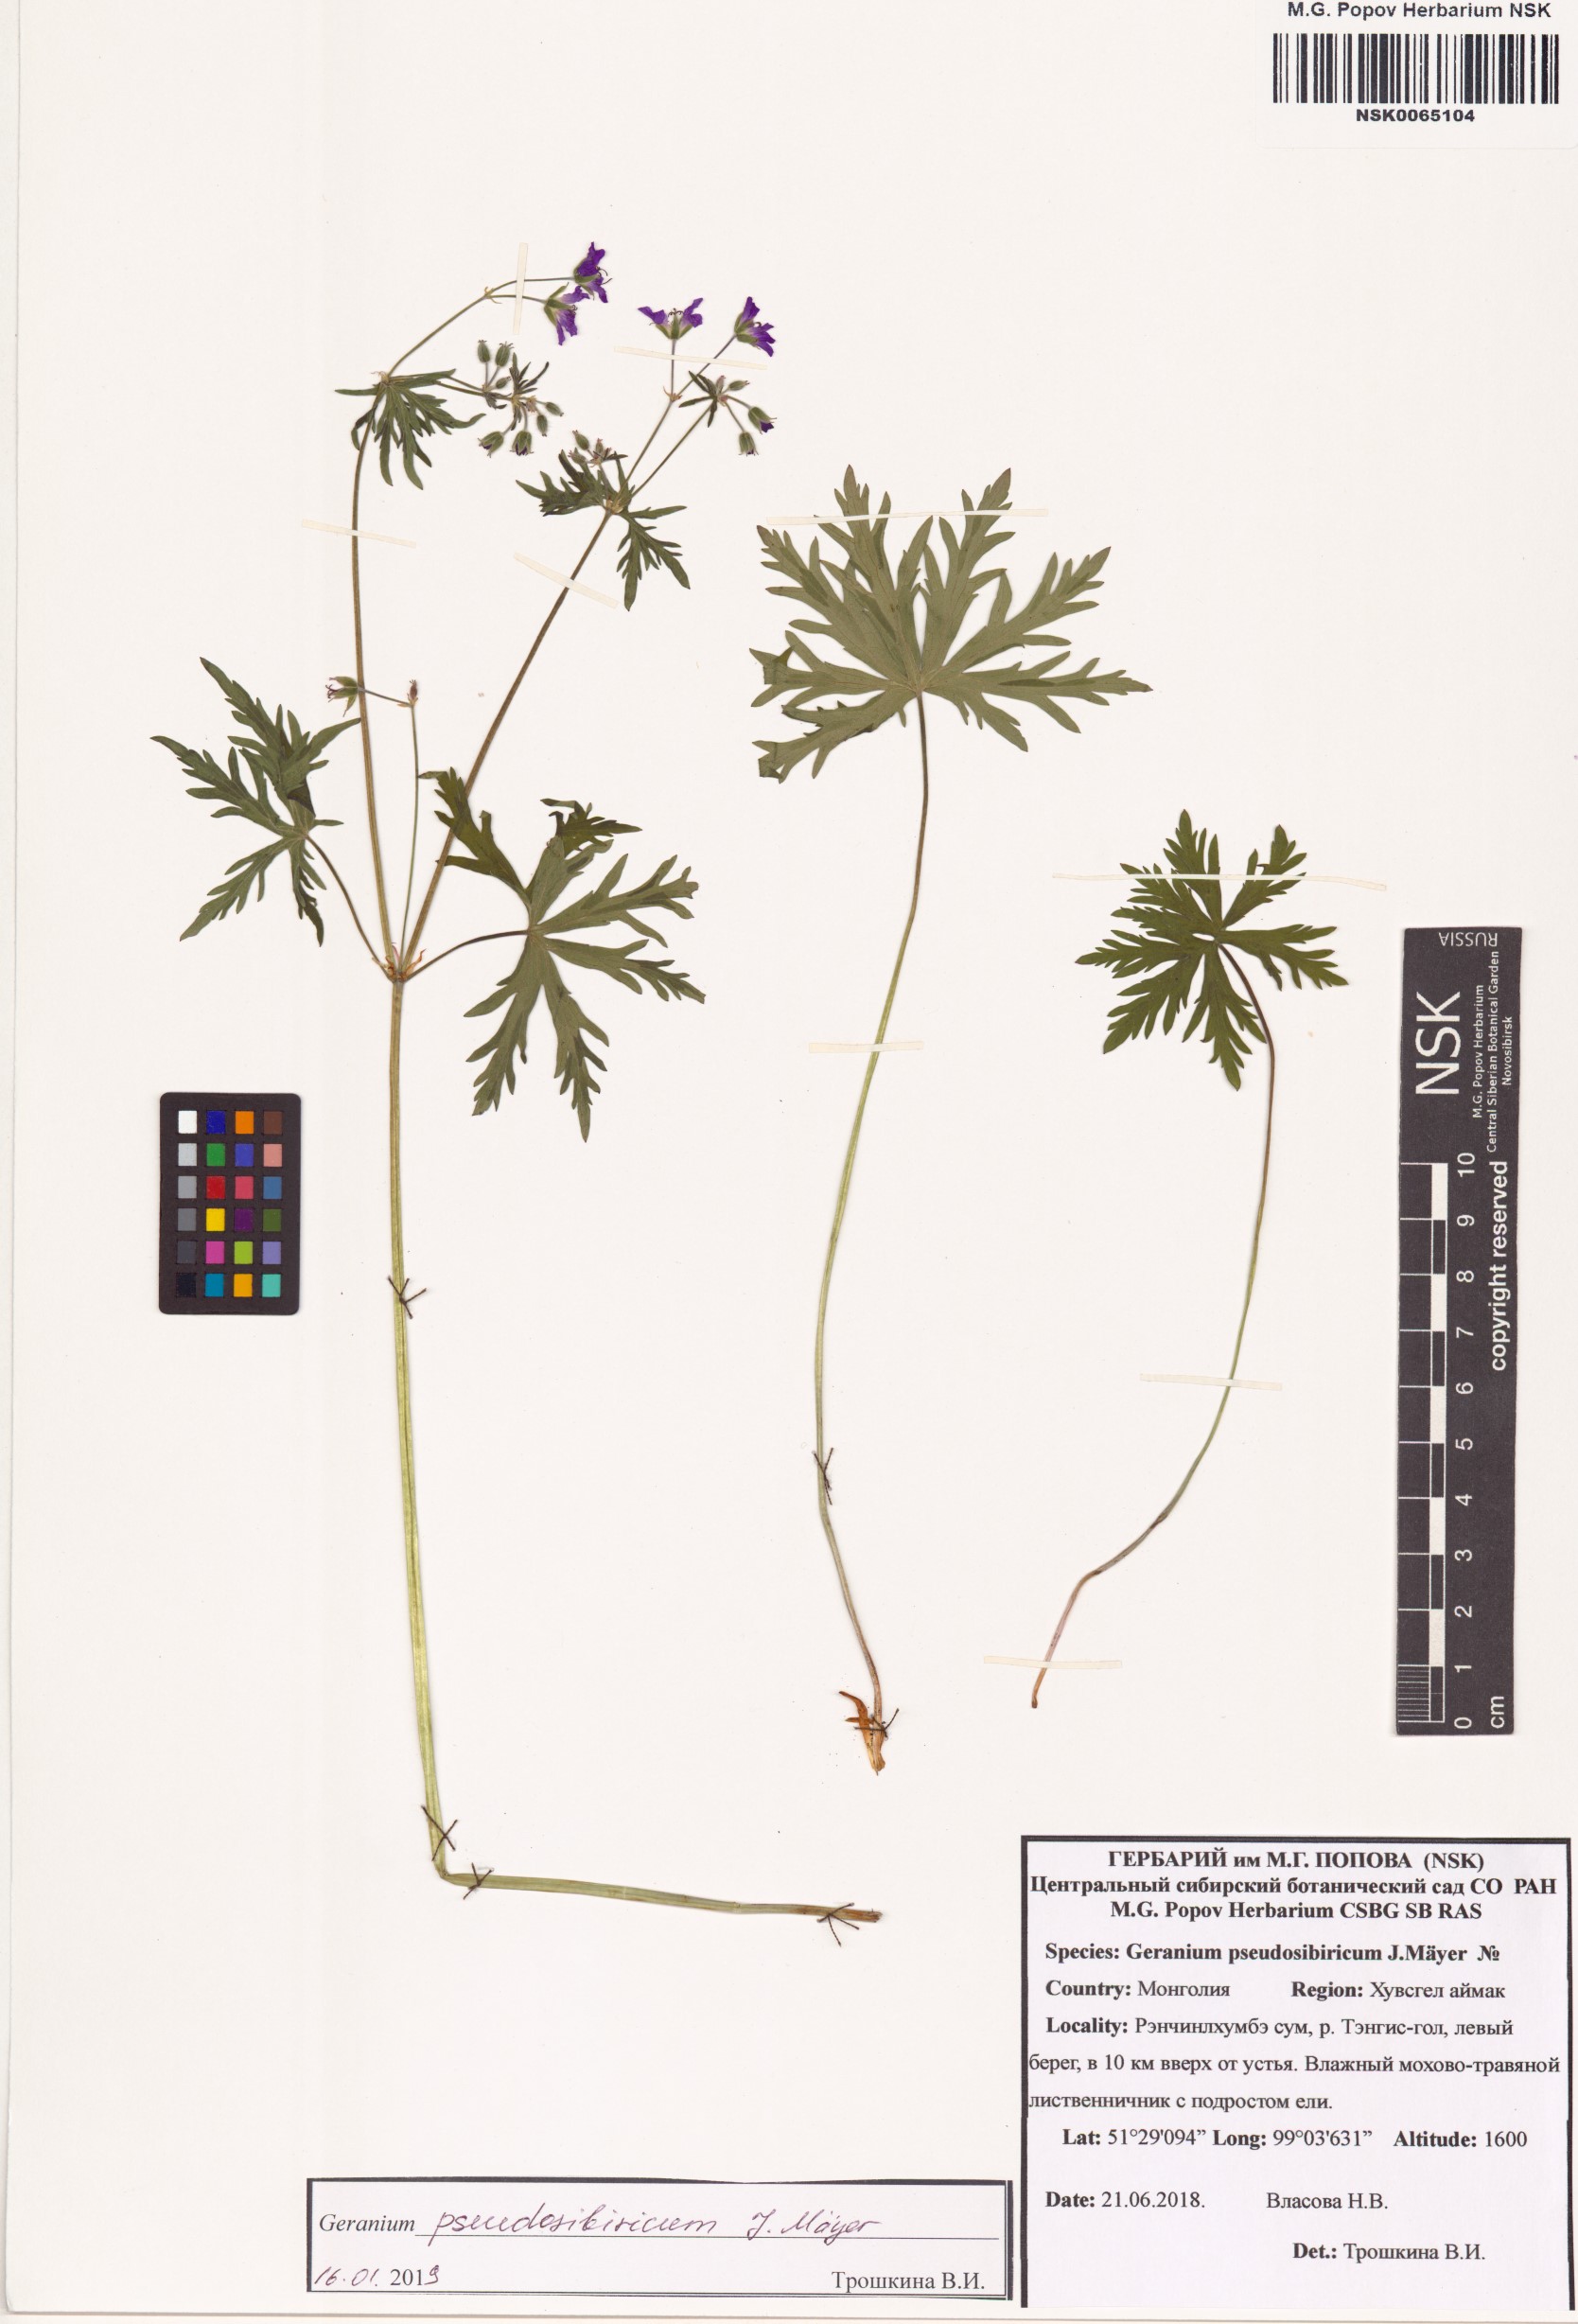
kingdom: Plantae
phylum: Tracheophyta
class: Magnoliopsida
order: Geraniales
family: Geraniaceae
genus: Geranium
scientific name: Geranium pseudosibiricum
